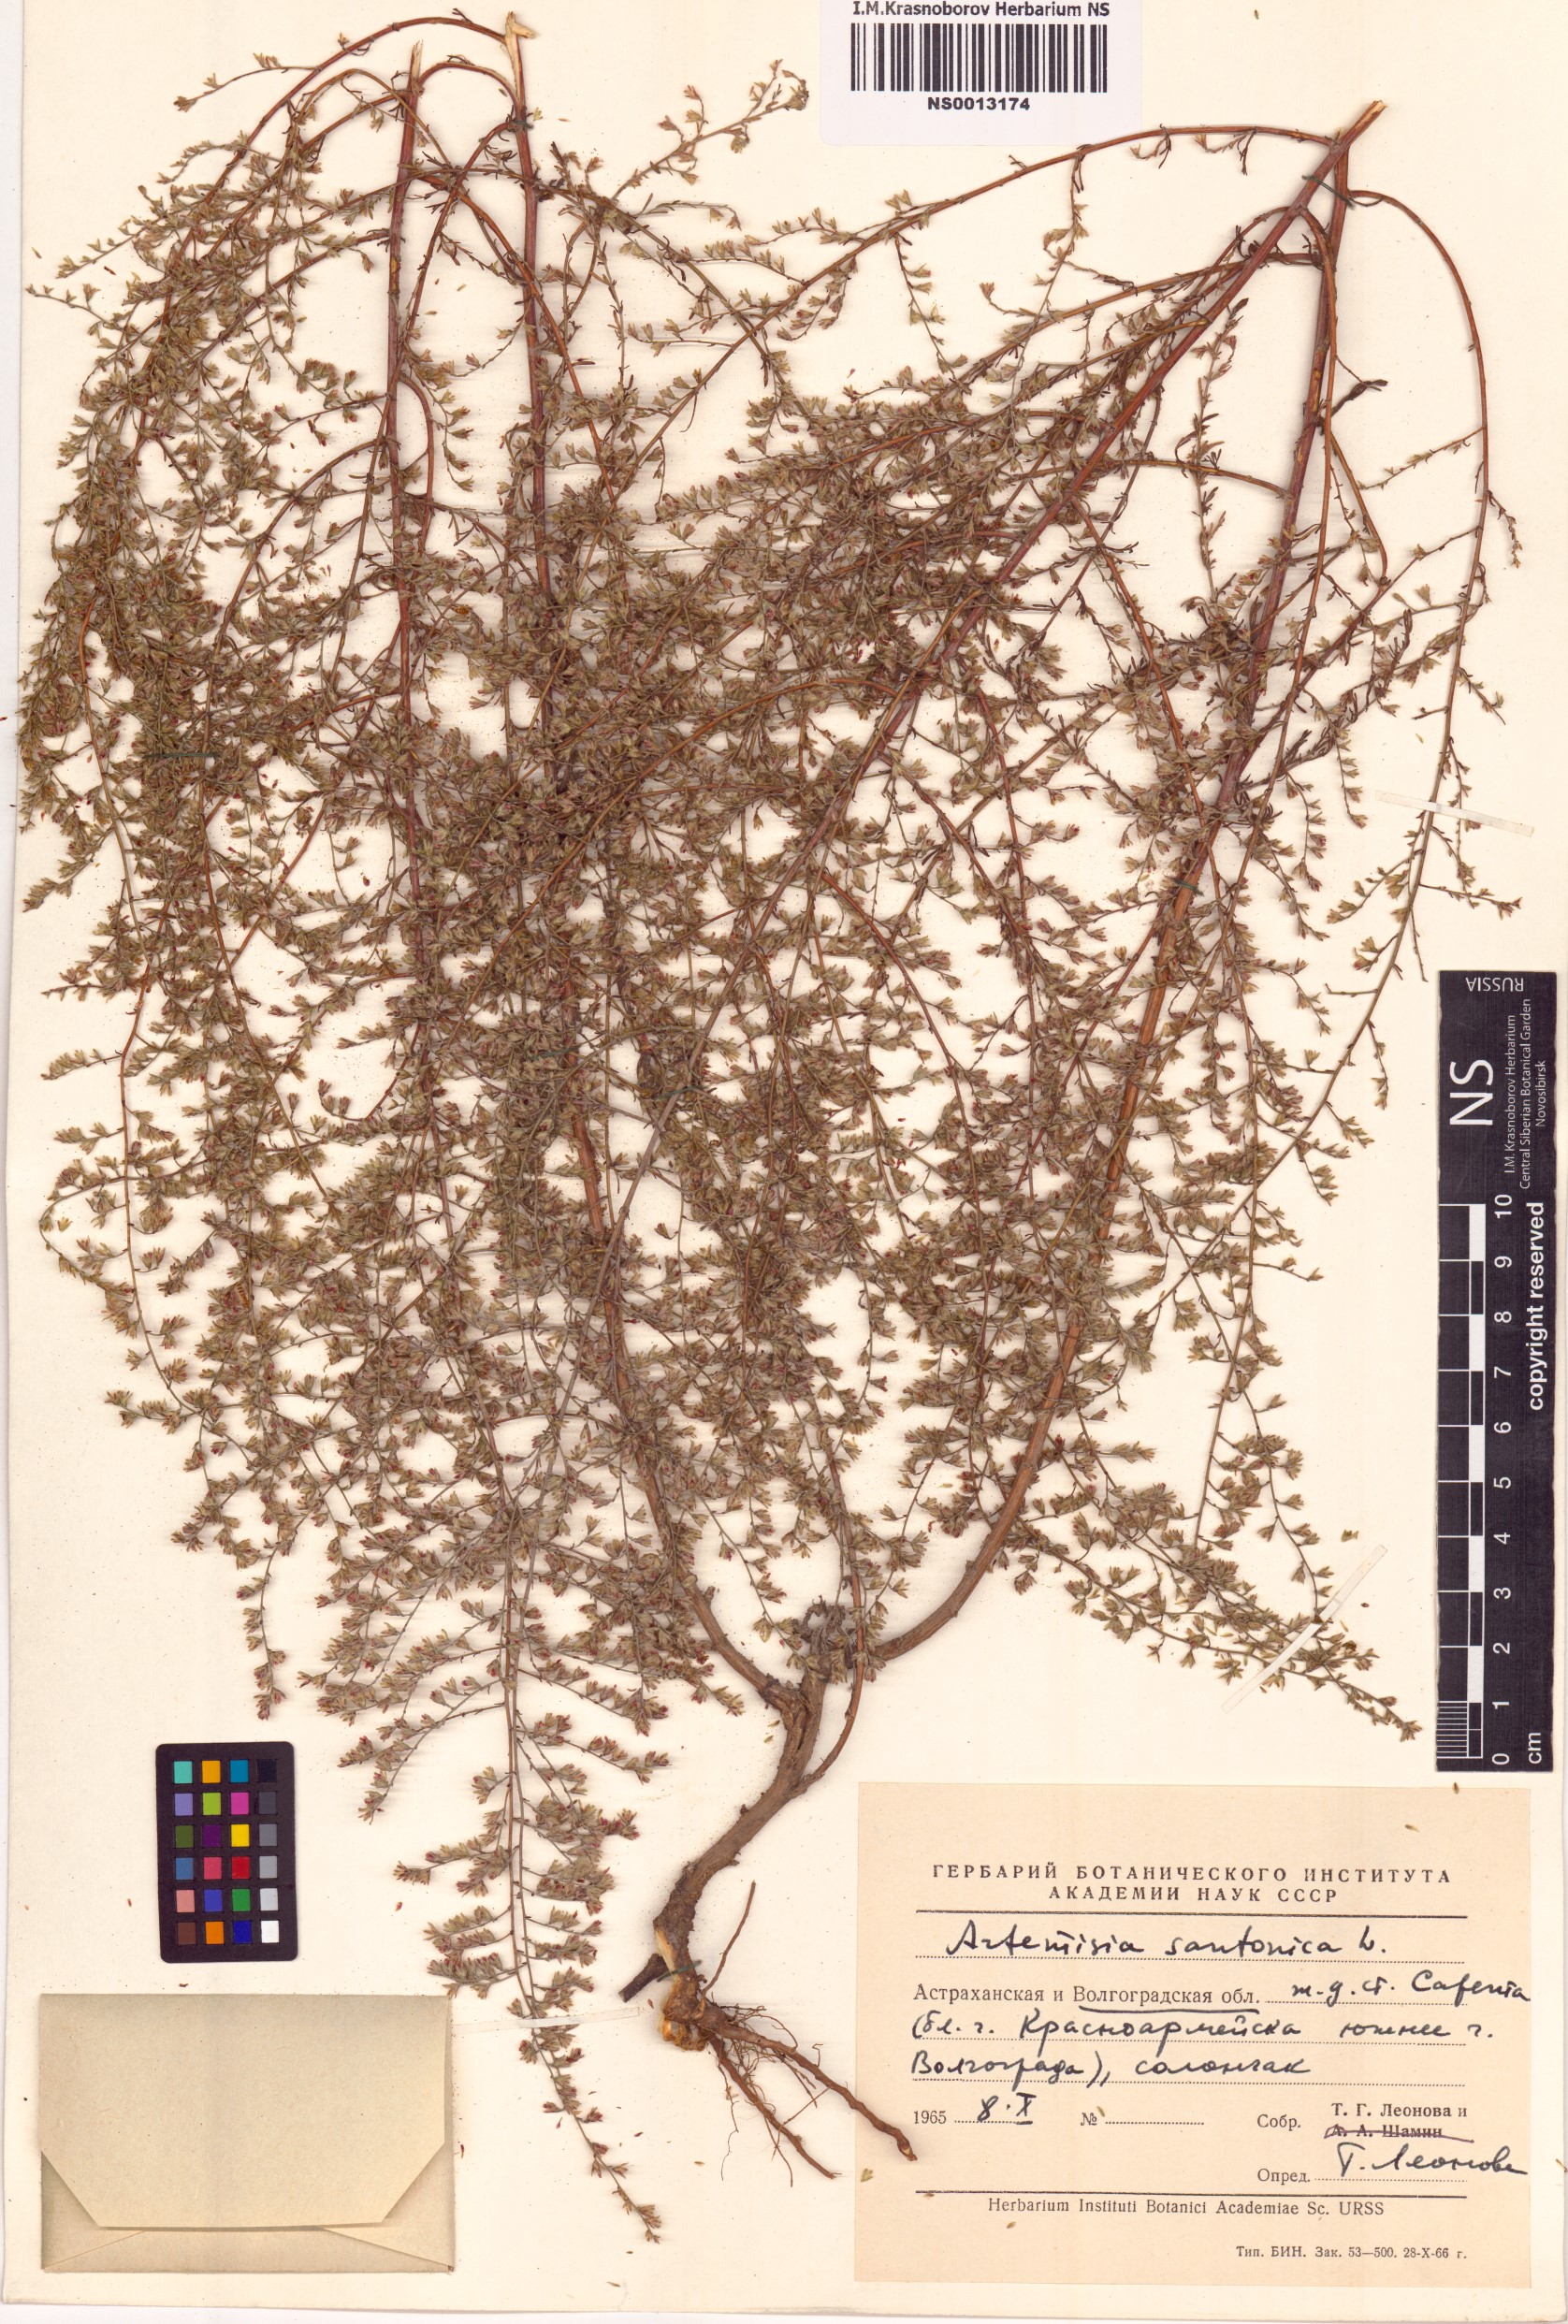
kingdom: Plantae
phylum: Tracheophyta
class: Magnoliopsida
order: Asterales
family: Asteraceae
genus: Artemisia
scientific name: Artemisia santonicum
